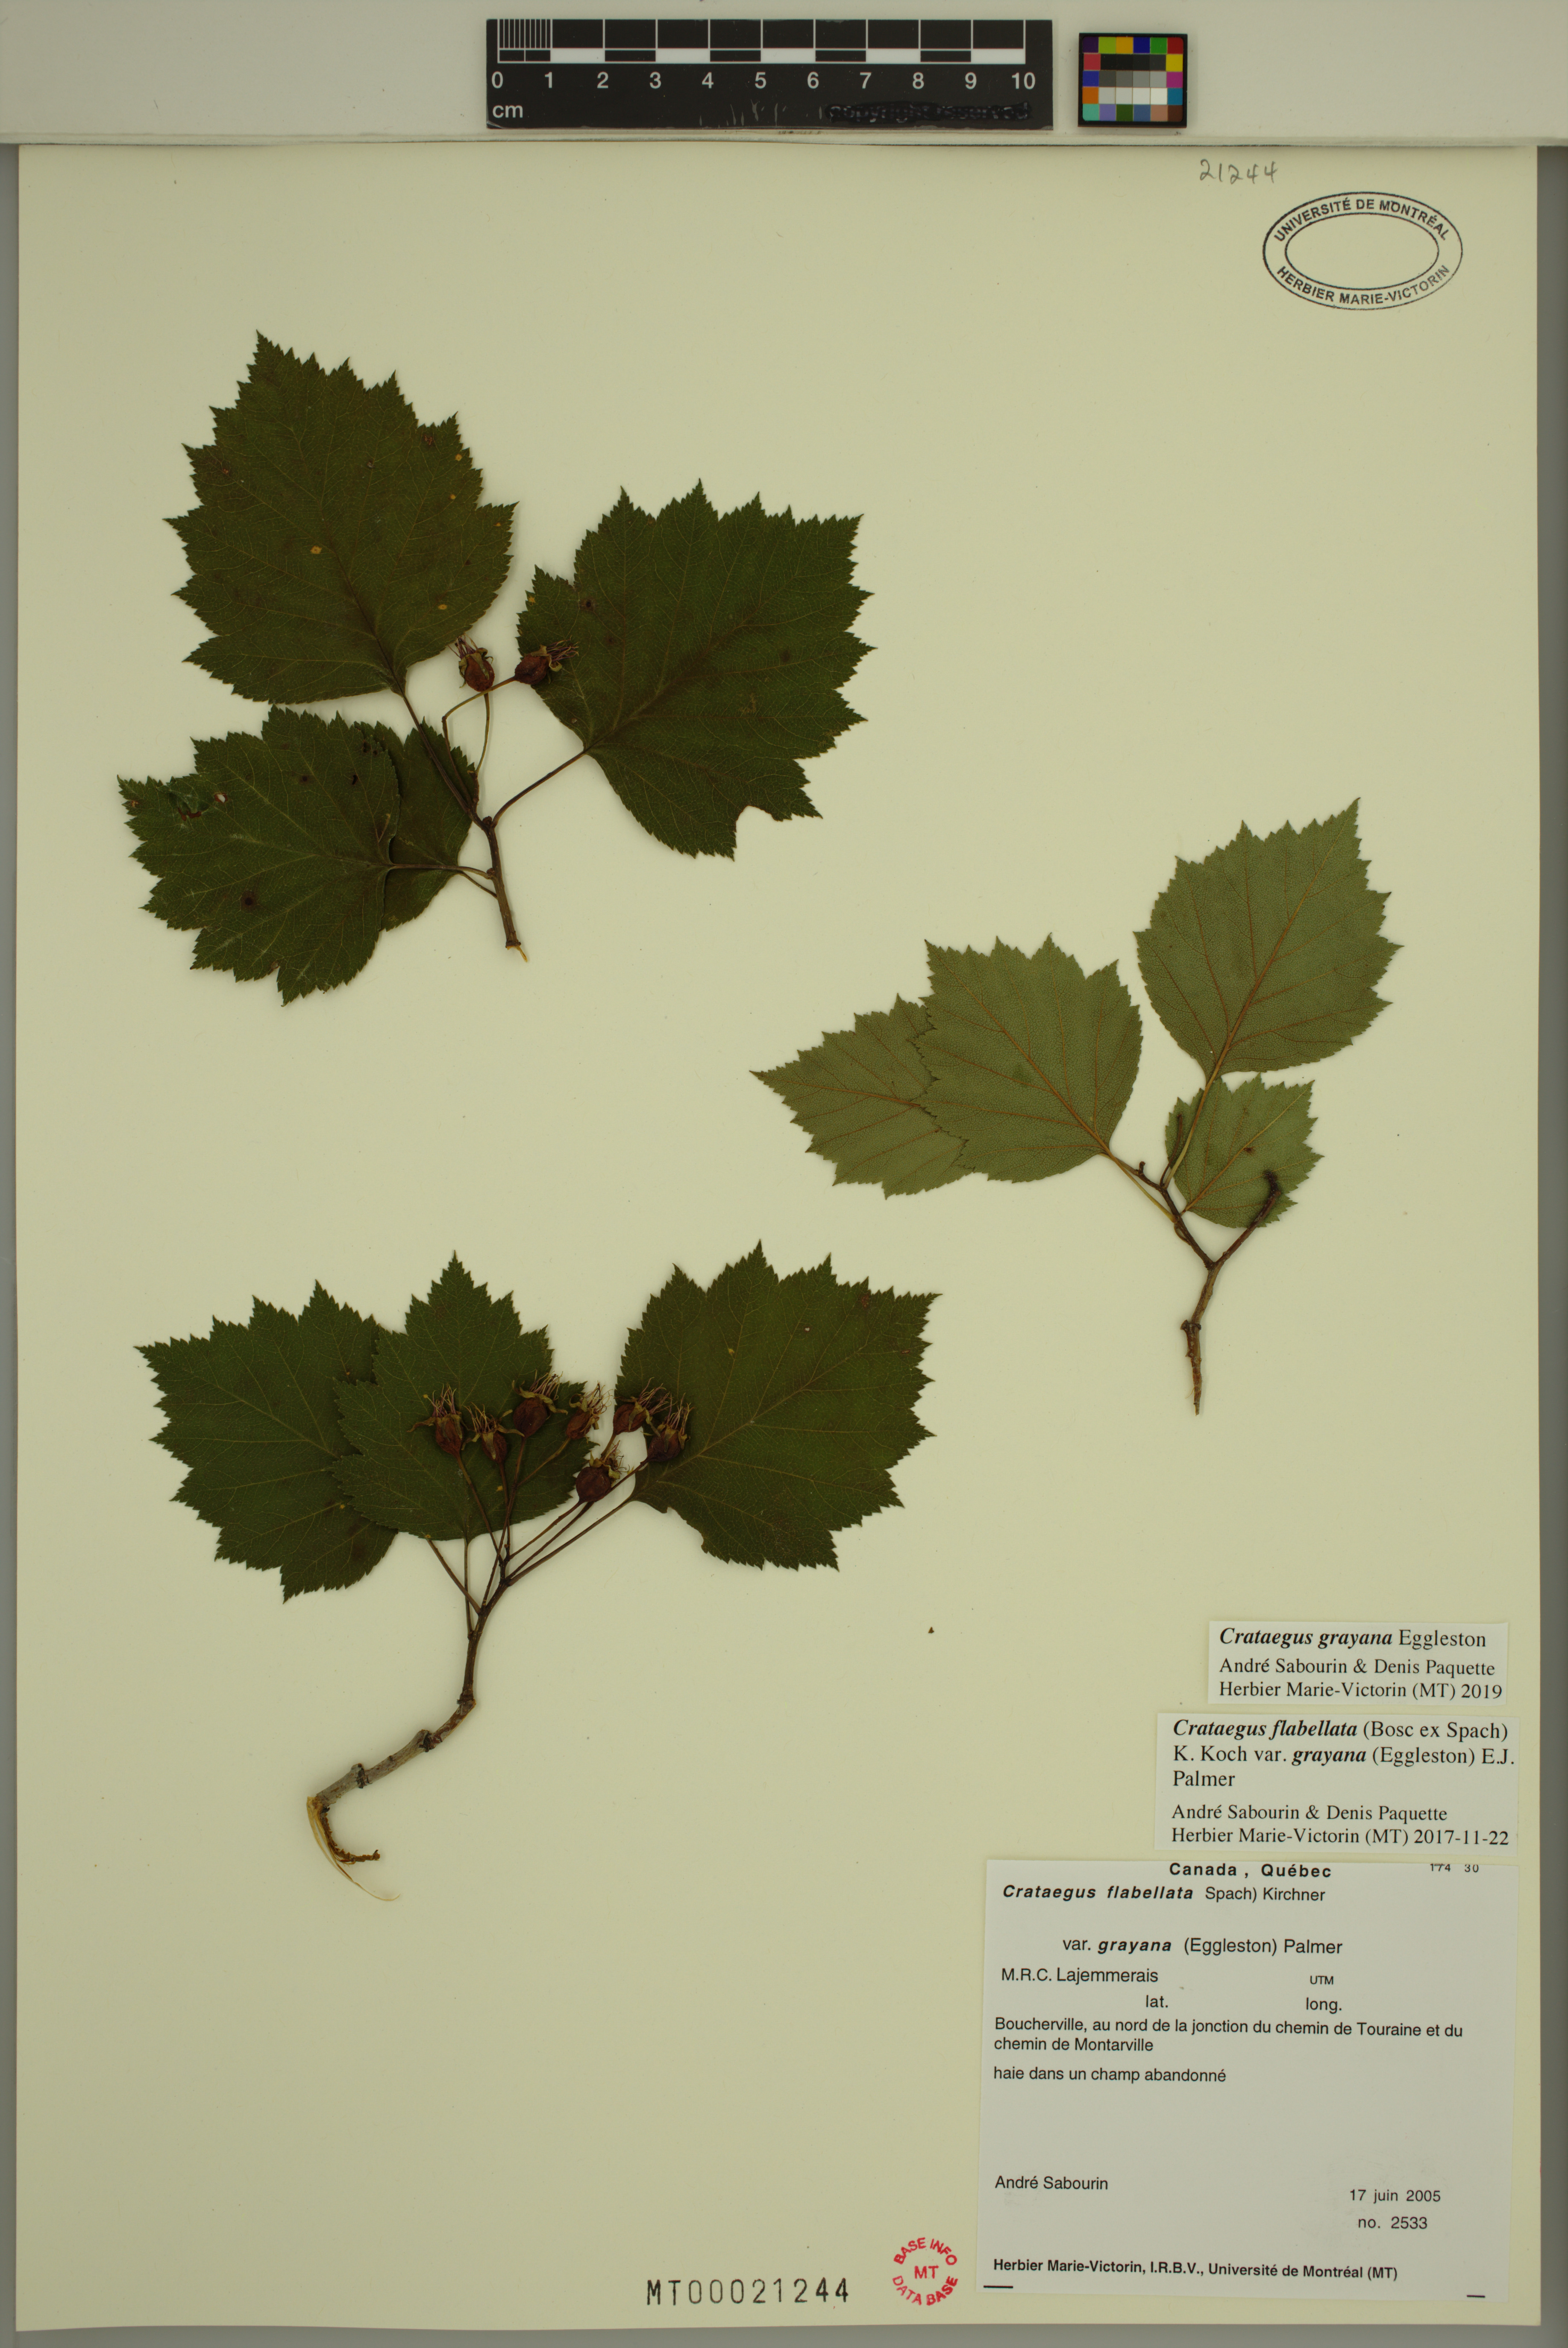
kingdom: Plantae
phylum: Tracheophyta
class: Magnoliopsida
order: Rosales
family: Rosaceae
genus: Crataegus
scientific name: Crataegus schuettei
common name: Schuette's hawthorn
